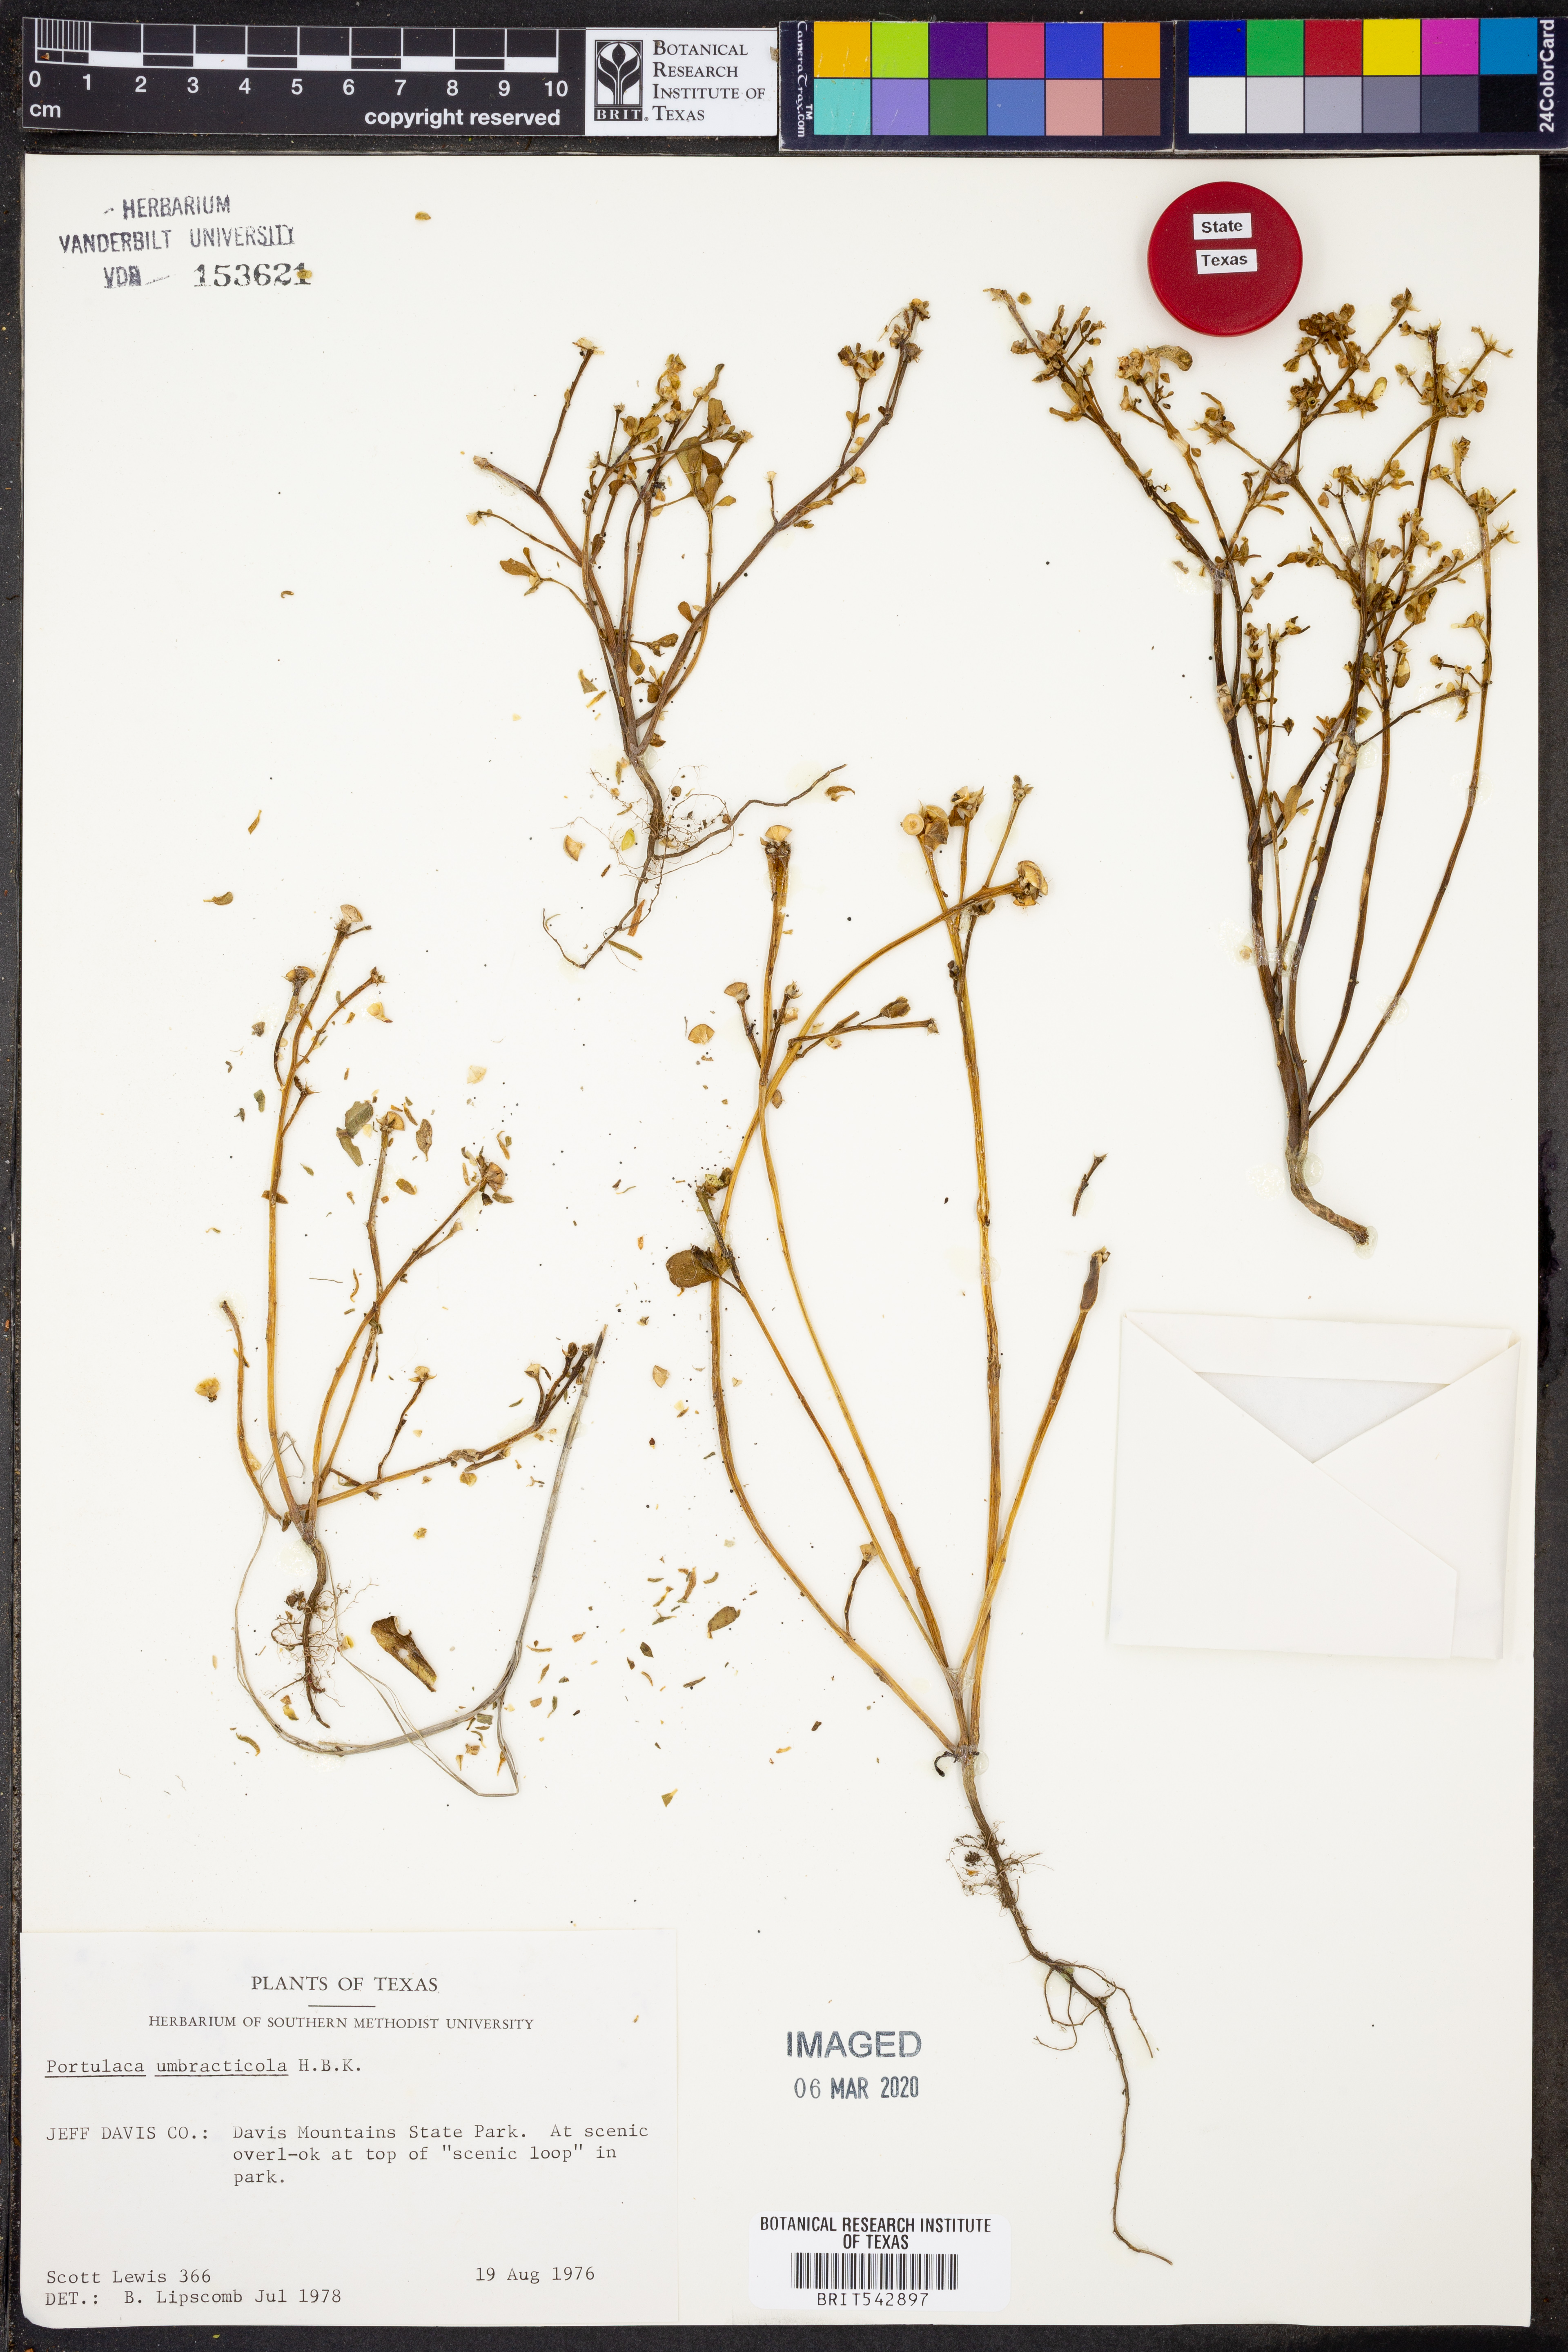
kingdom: Plantae
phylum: Tracheophyta
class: Magnoliopsida
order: Caryophyllales
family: Portulacaceae
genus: Portulaca
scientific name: Portulaca umbraticola
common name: Wingpod purslane
